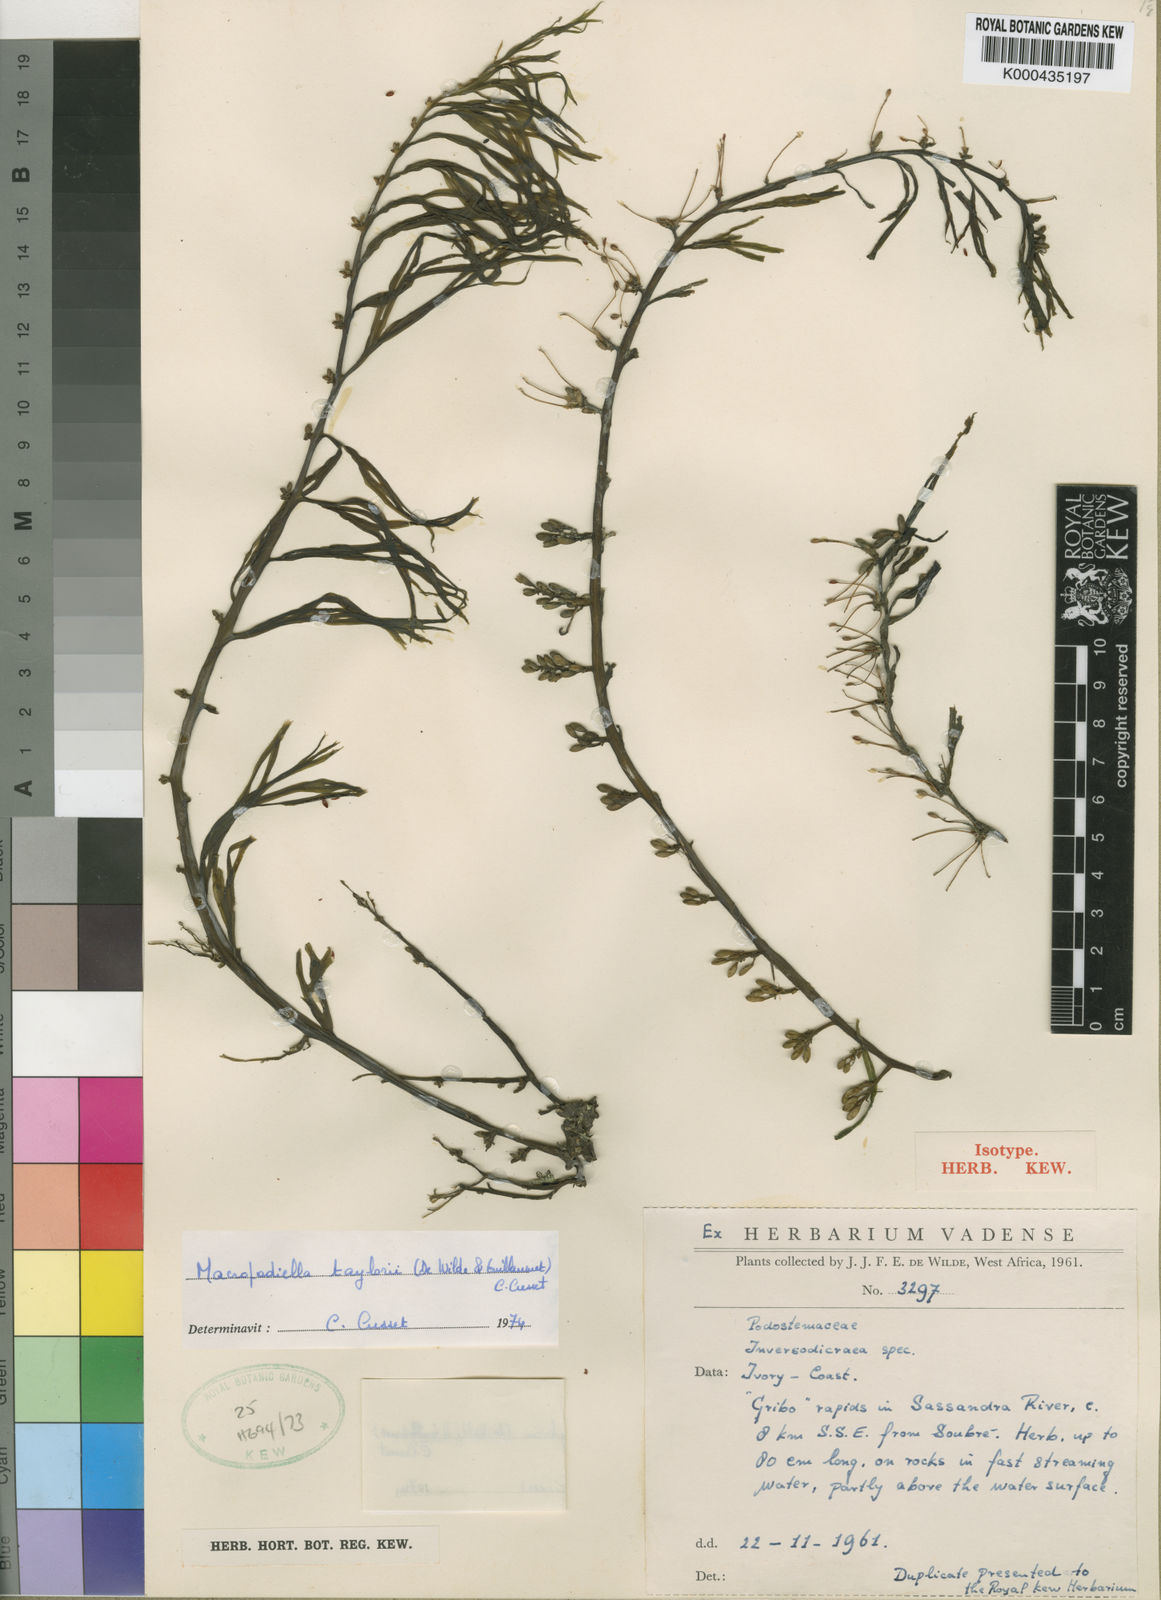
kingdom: Plantae
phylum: Tracheophyta
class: Magnoliopsida
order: Malpighiales
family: Podostemaceae
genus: Macropodiella
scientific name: Macropodiella
